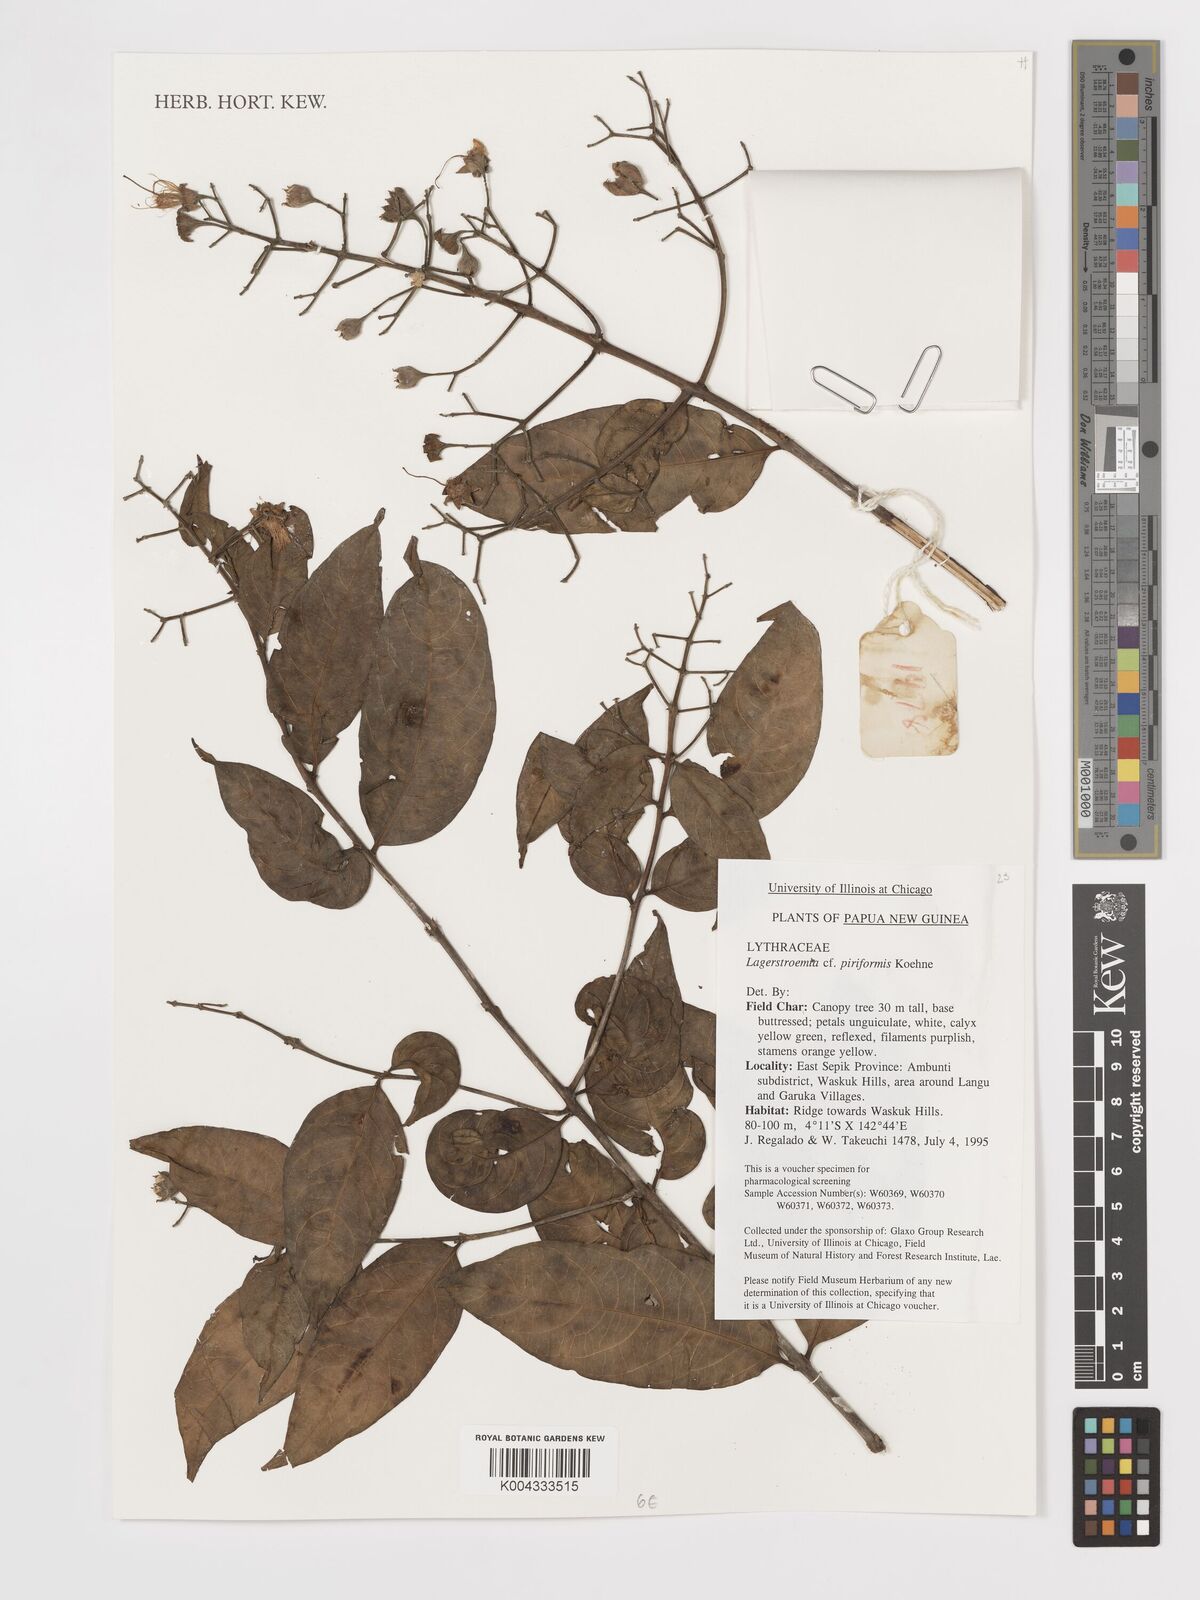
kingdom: Plantae
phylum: Tracheophyta
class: Magnoliopsida
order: Myrtales
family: Lythraceae
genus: Lagerstroemia
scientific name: Lagerstroemia celebica
